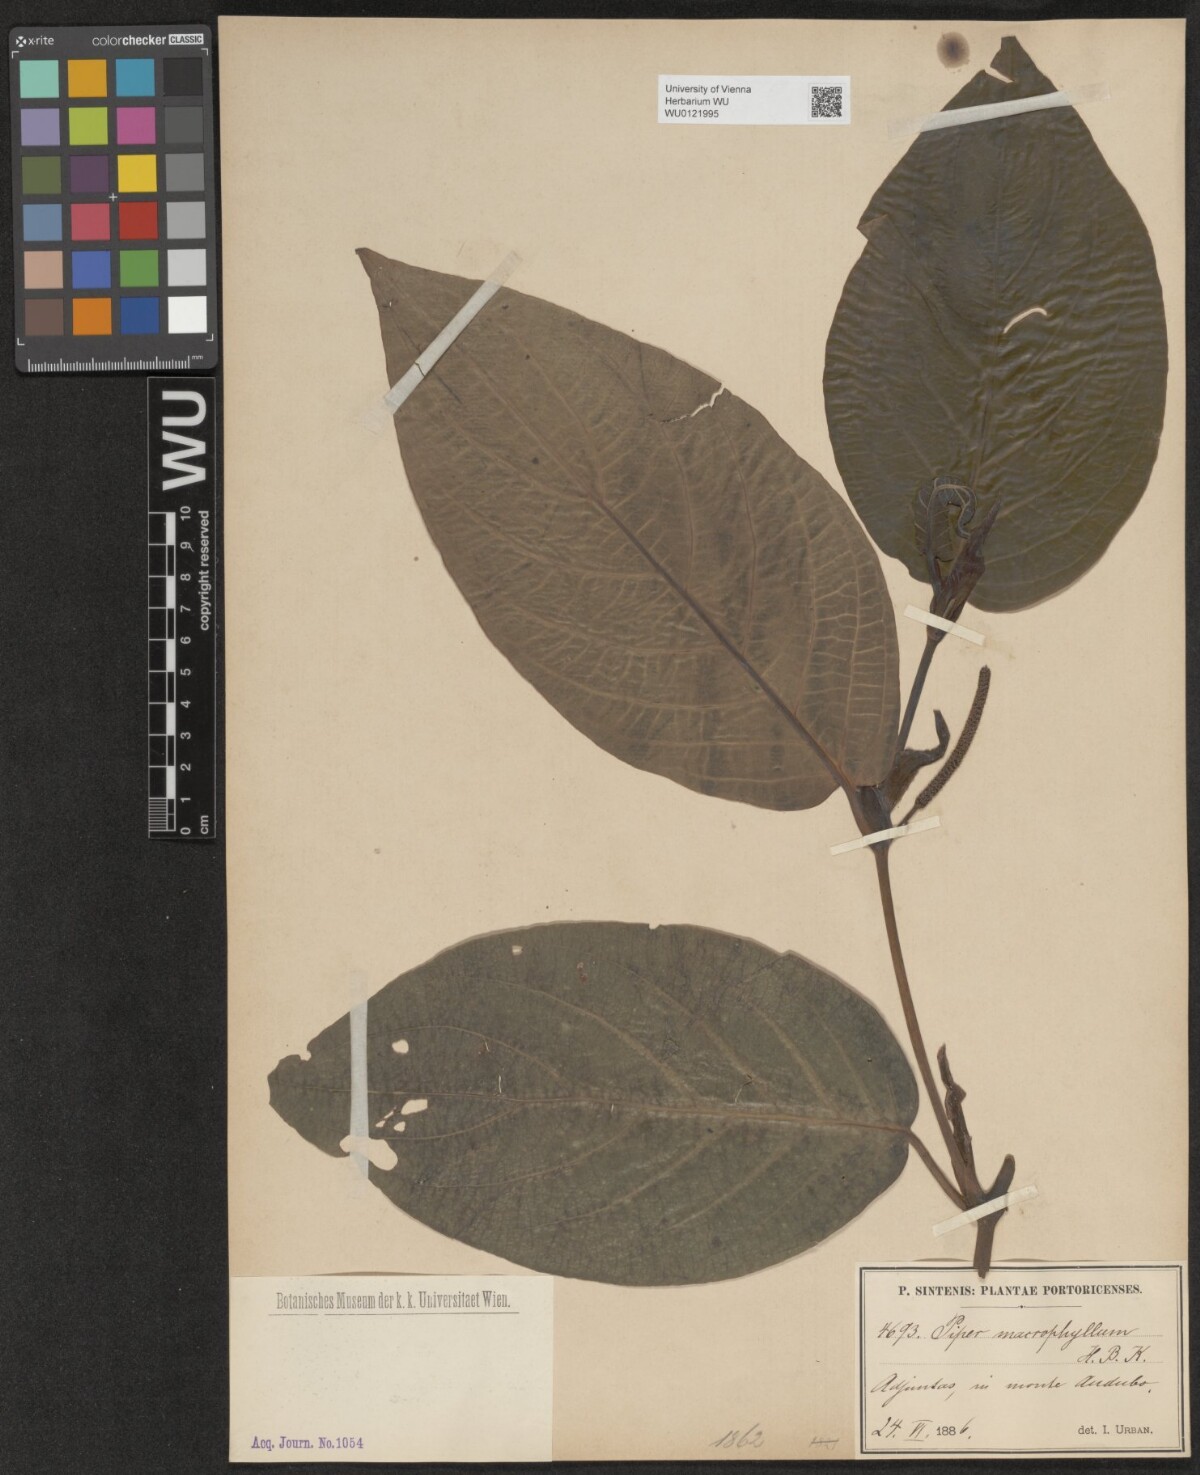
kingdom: Plantae
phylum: Tracheophyta
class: Magnoliopsida
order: Piperales
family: Piperaceae
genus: Piper
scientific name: Piper malacophyllum
